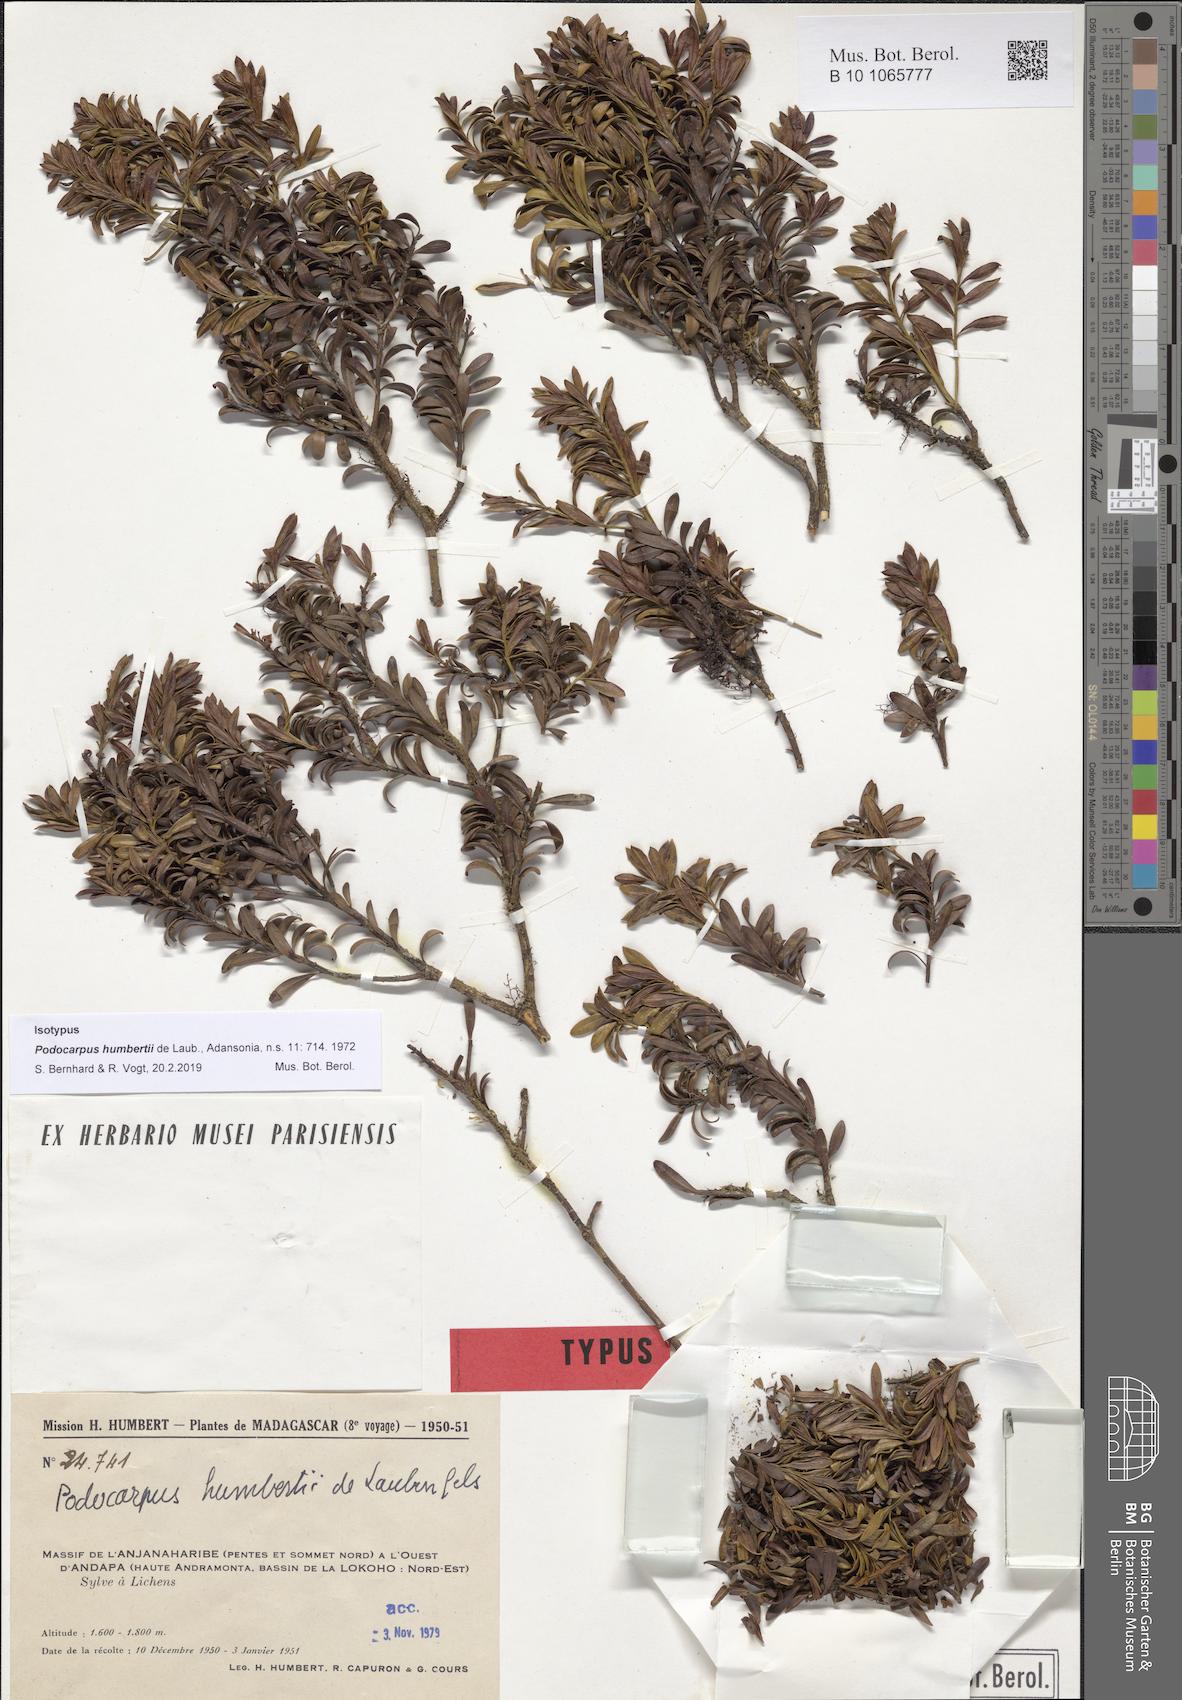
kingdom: Plantae
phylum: Tracheophyta
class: Pinopsida
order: Pinales
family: Podocarpaceae
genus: Podocarpus
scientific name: Podocarpus humbertii
